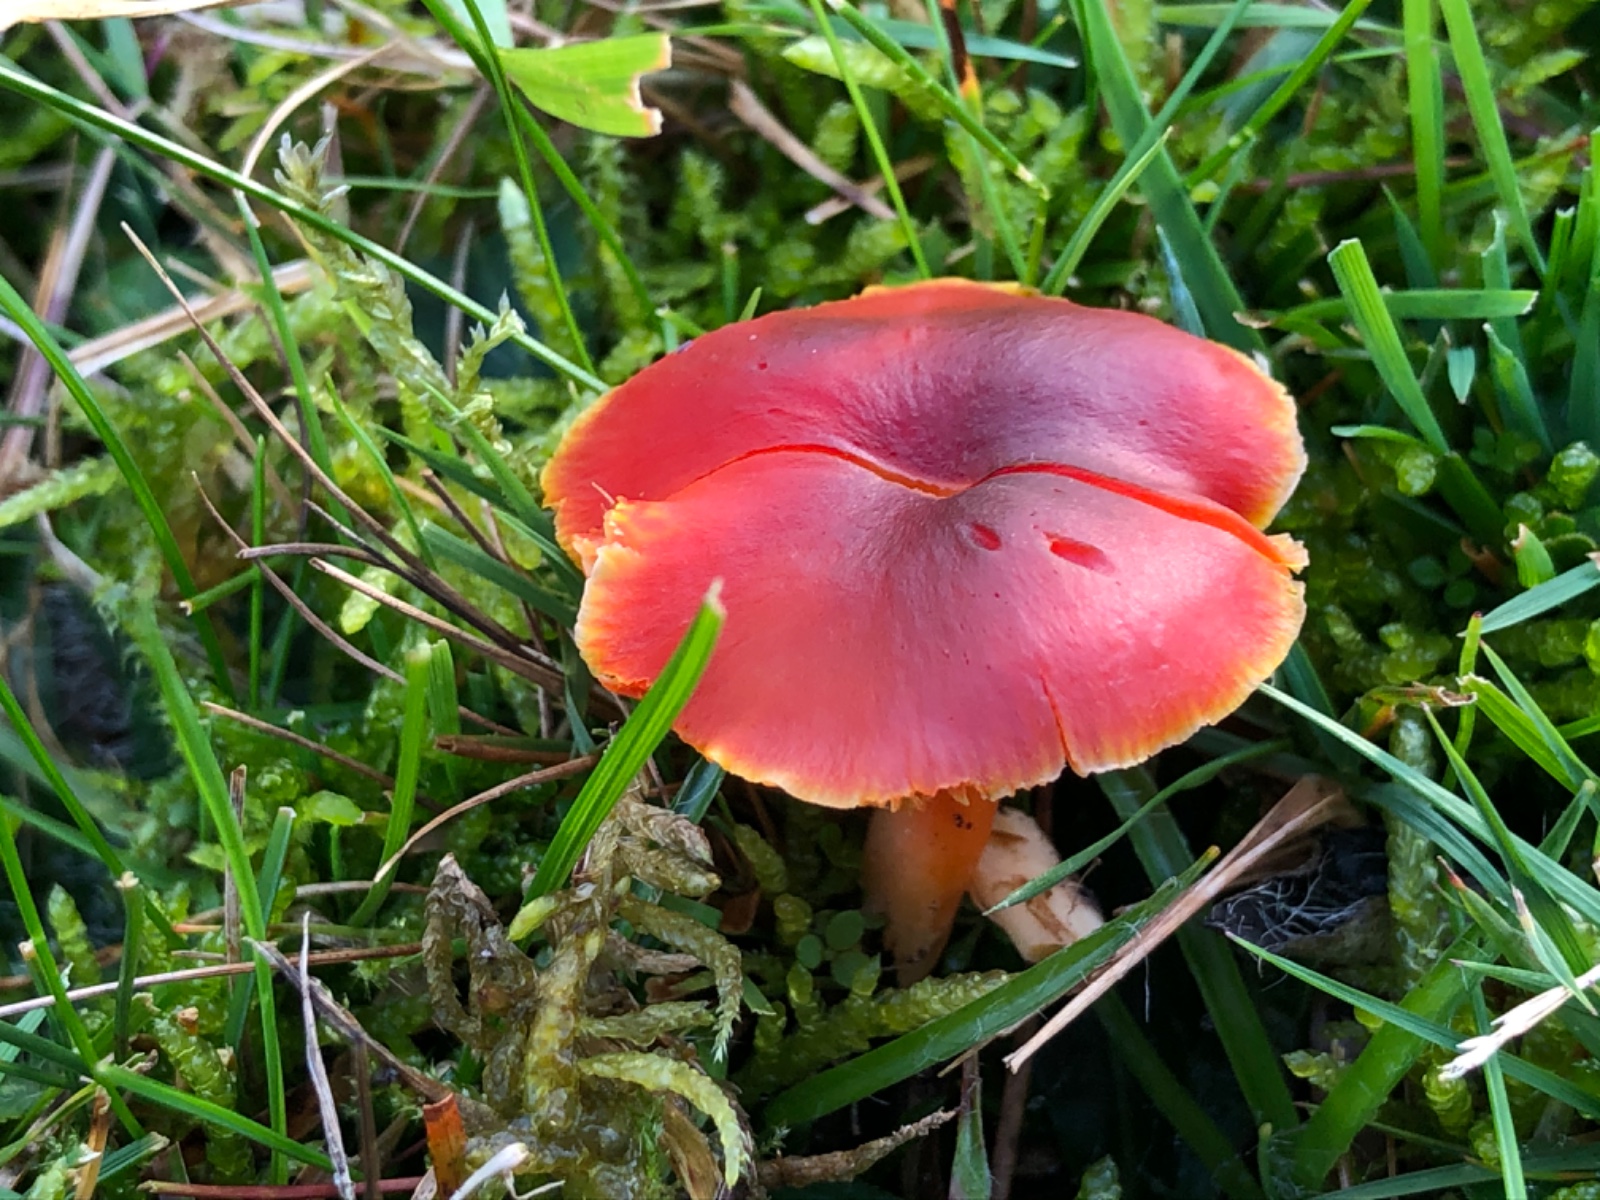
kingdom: Fungi
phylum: Basidiomycota
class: Agaricomycetes
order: Agaricales
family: Hygrophoraceae
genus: Hygrocybe
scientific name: Hygrocybe phaeococcinea
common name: sortdugget vokshat
